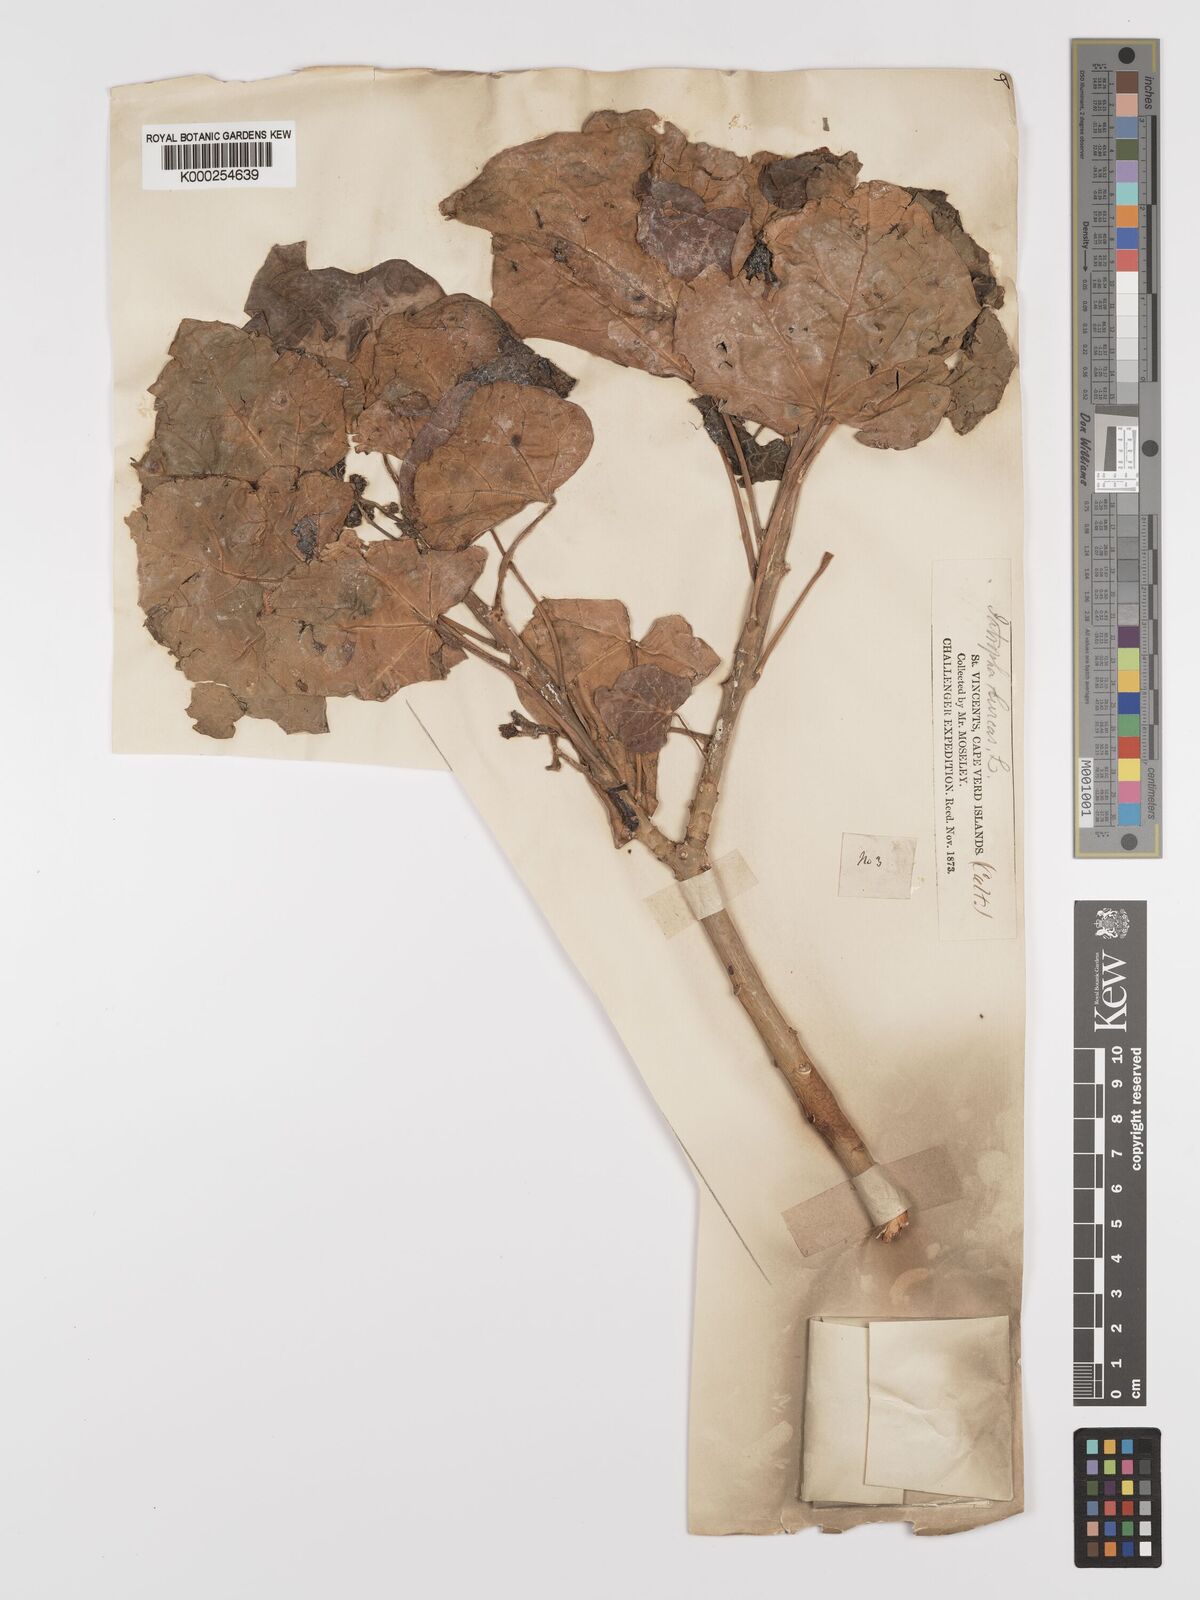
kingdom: Plantae
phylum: Tracheophyta
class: Magnoliopsida
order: Malpighiales
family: Euphorbiaceae
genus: Jatropha
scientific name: Jatropha podagrica
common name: Gout stalk
